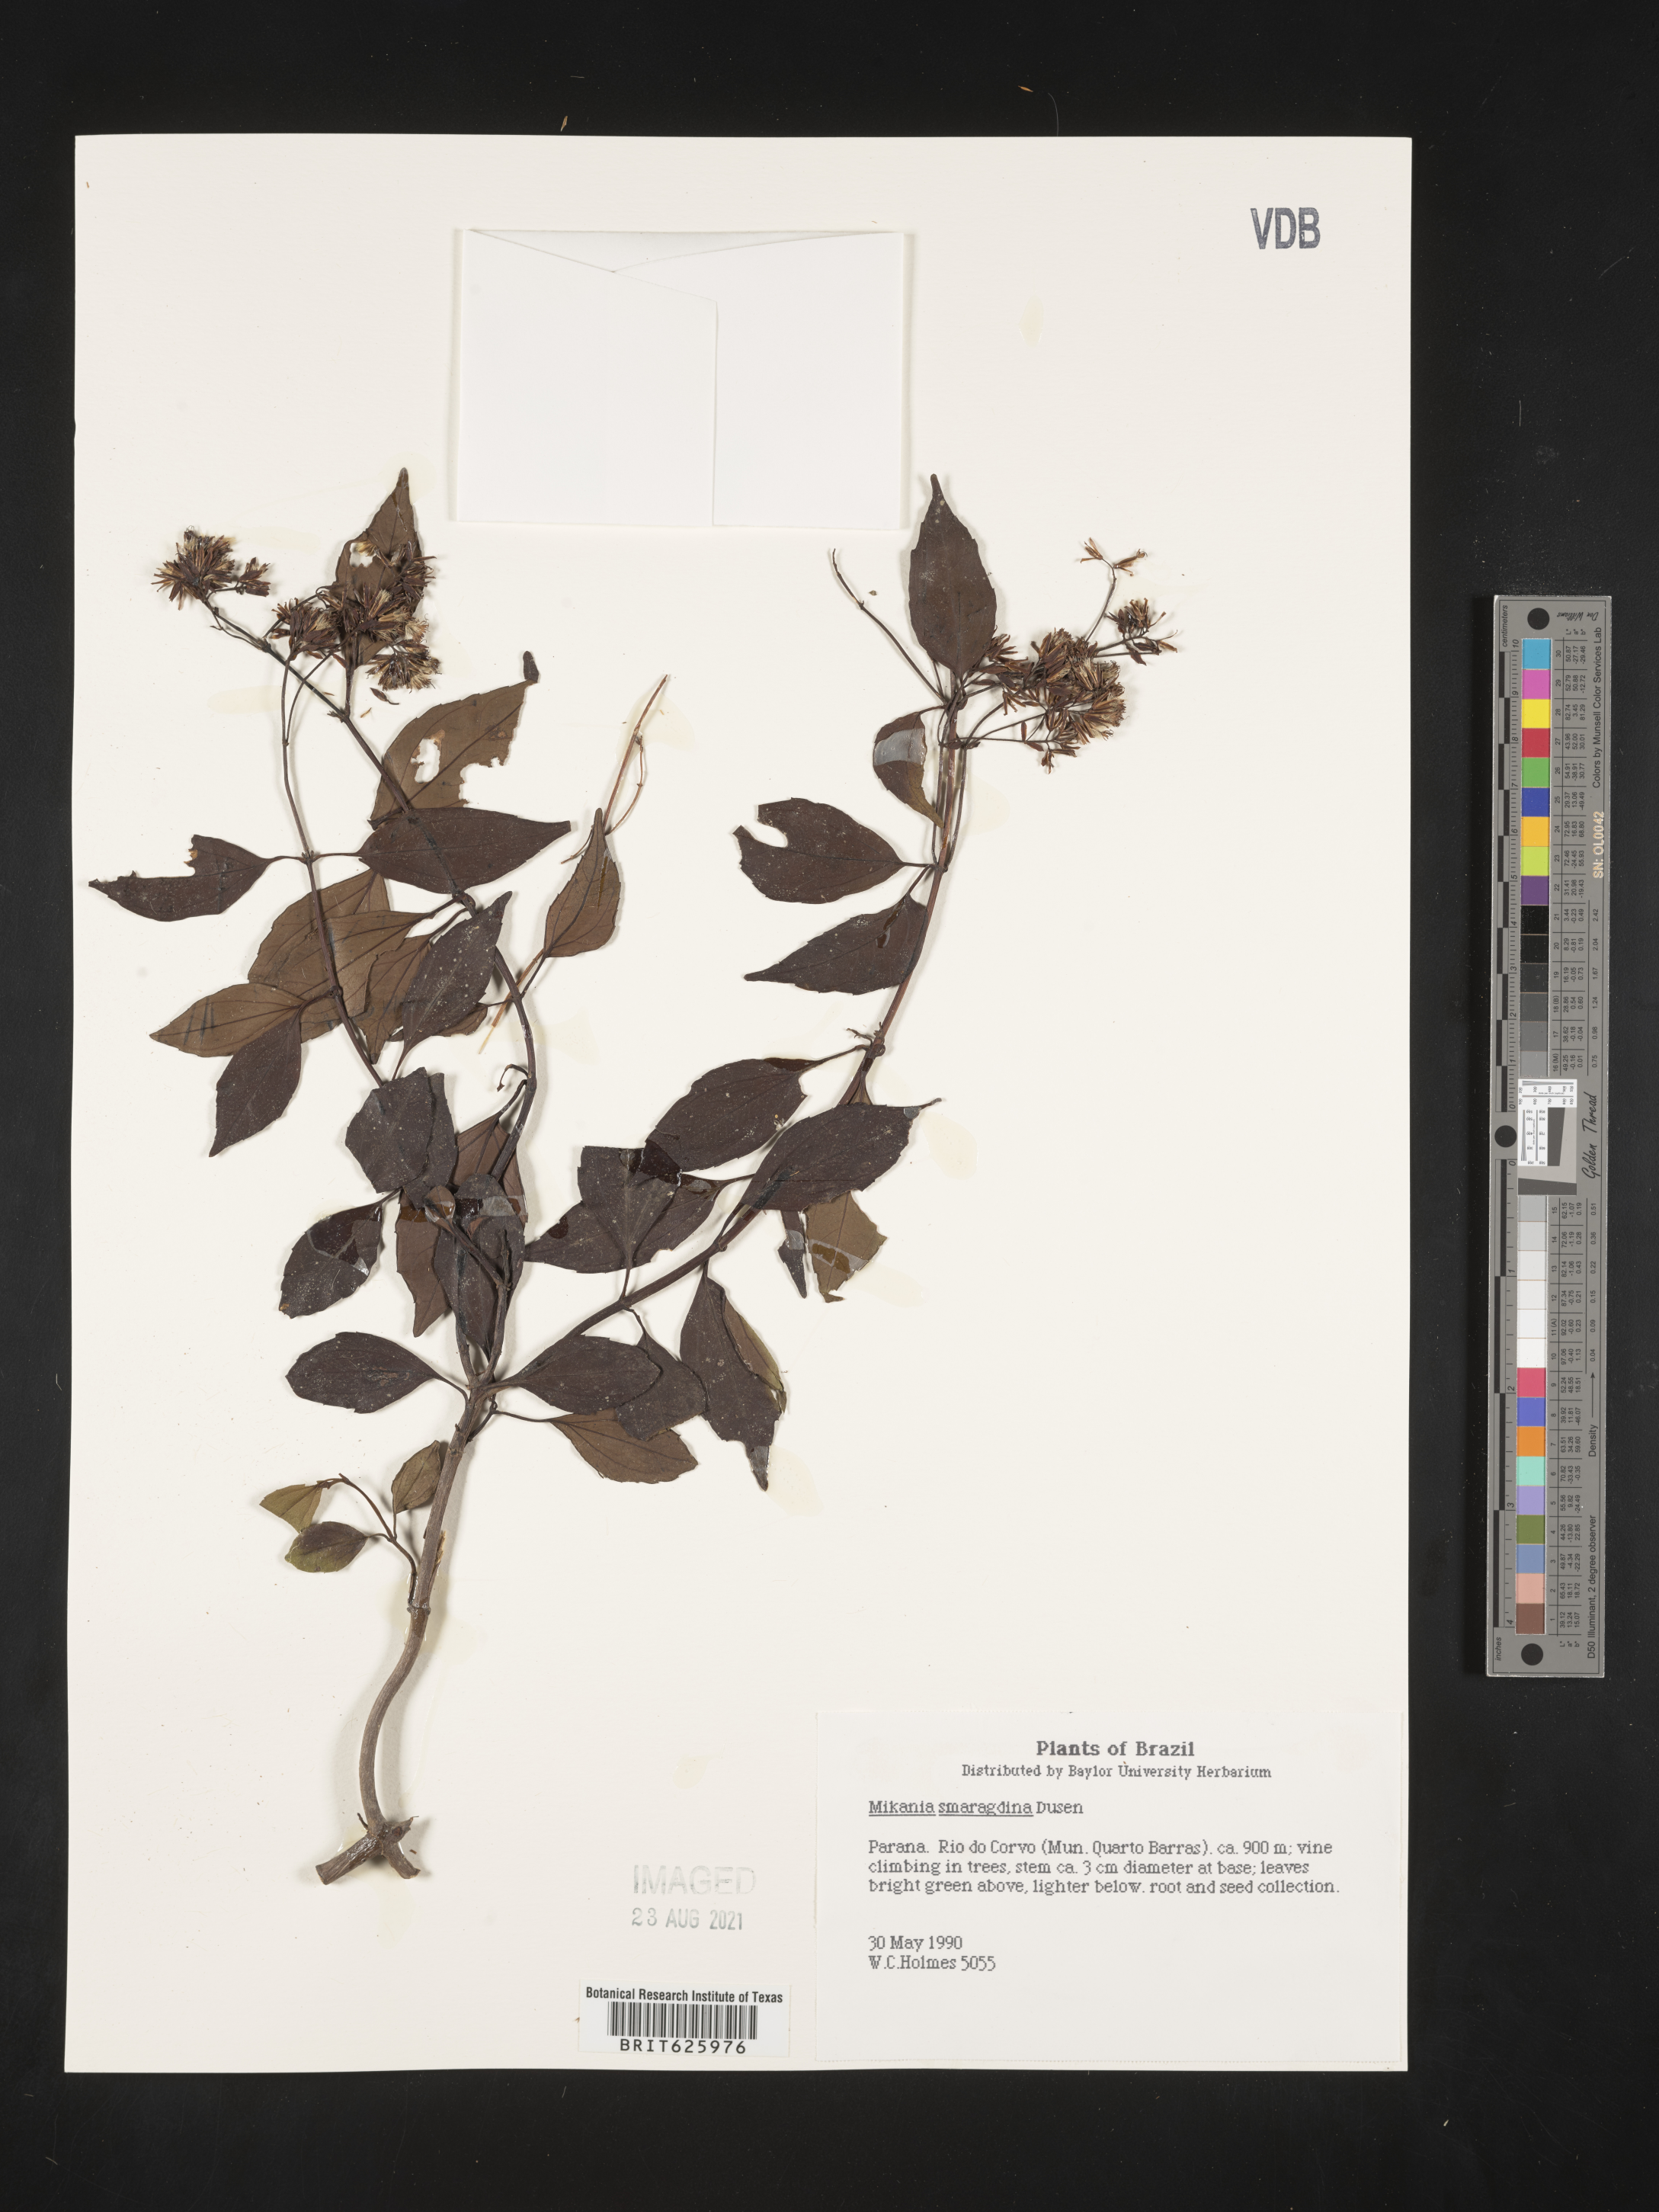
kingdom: Plantae
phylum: Tracheophyta
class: Magnoliopsida
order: Asterales
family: Asteraceae
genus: Mikania
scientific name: Mikania smaragdina
